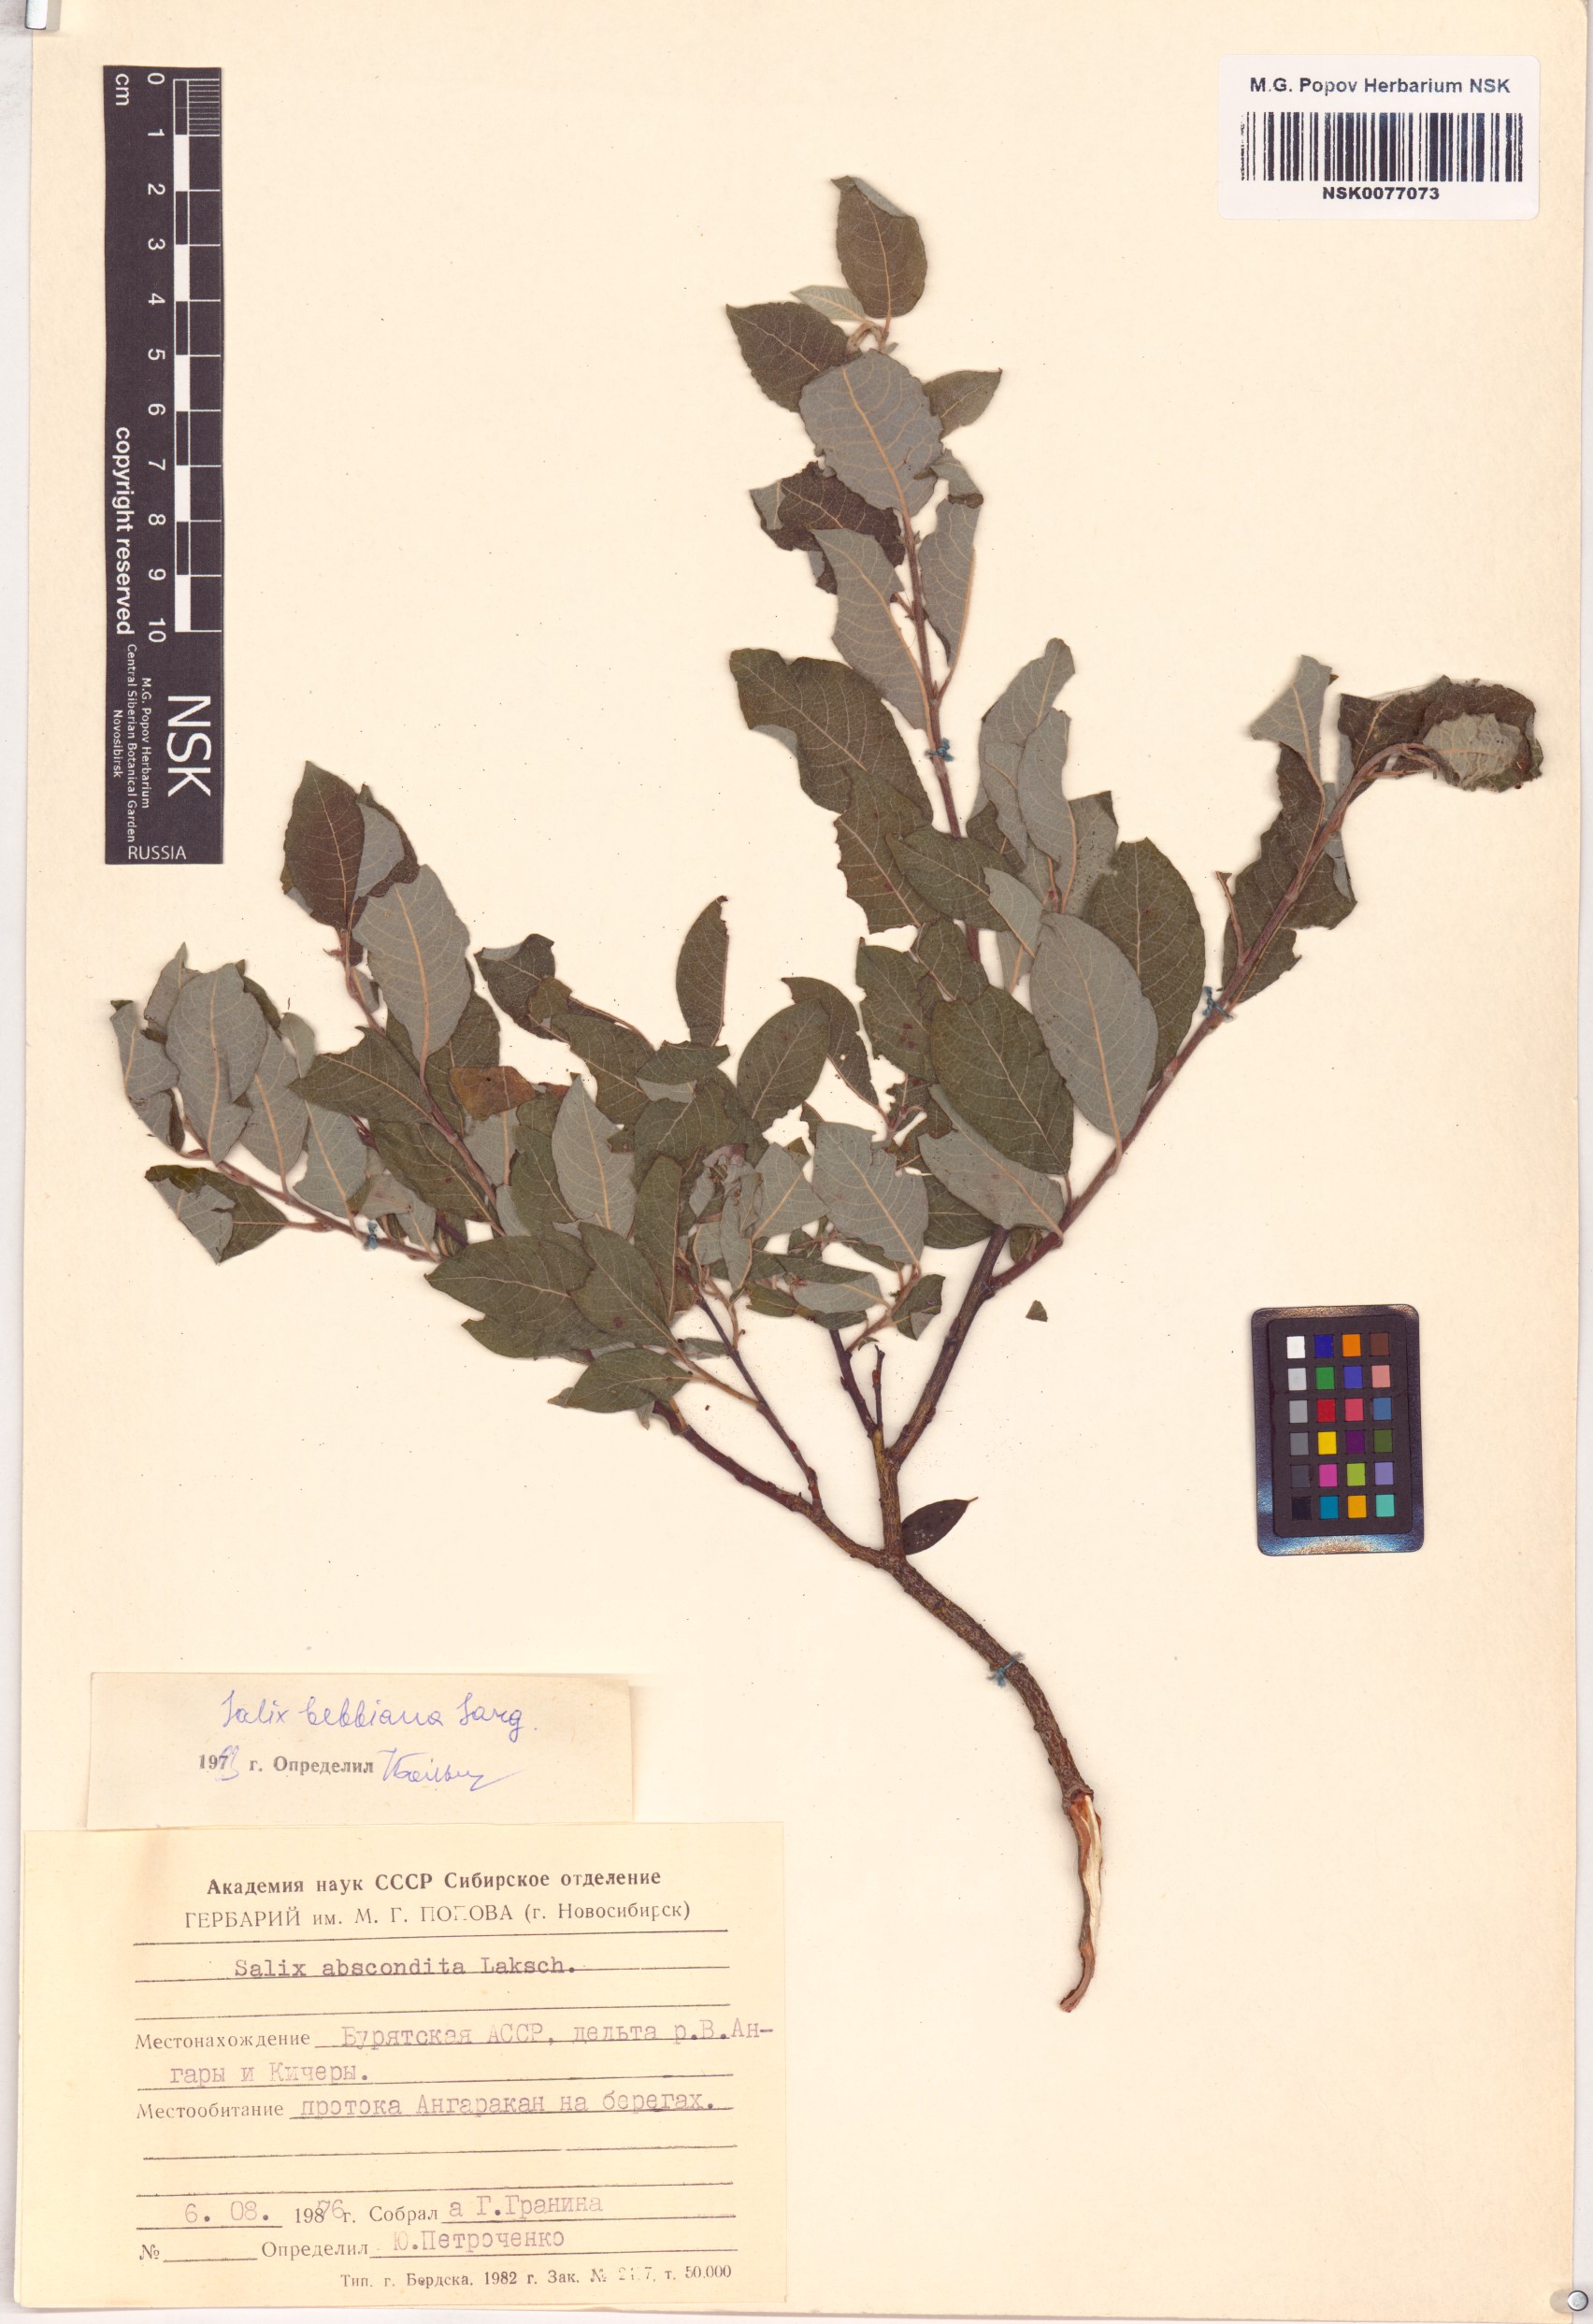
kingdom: Plantae
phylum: Tracheophyta
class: Magnoliopsida
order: Malpighiales
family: Salicaceae
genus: Salix
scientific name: Salix bebbiana
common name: Bebb's willow
